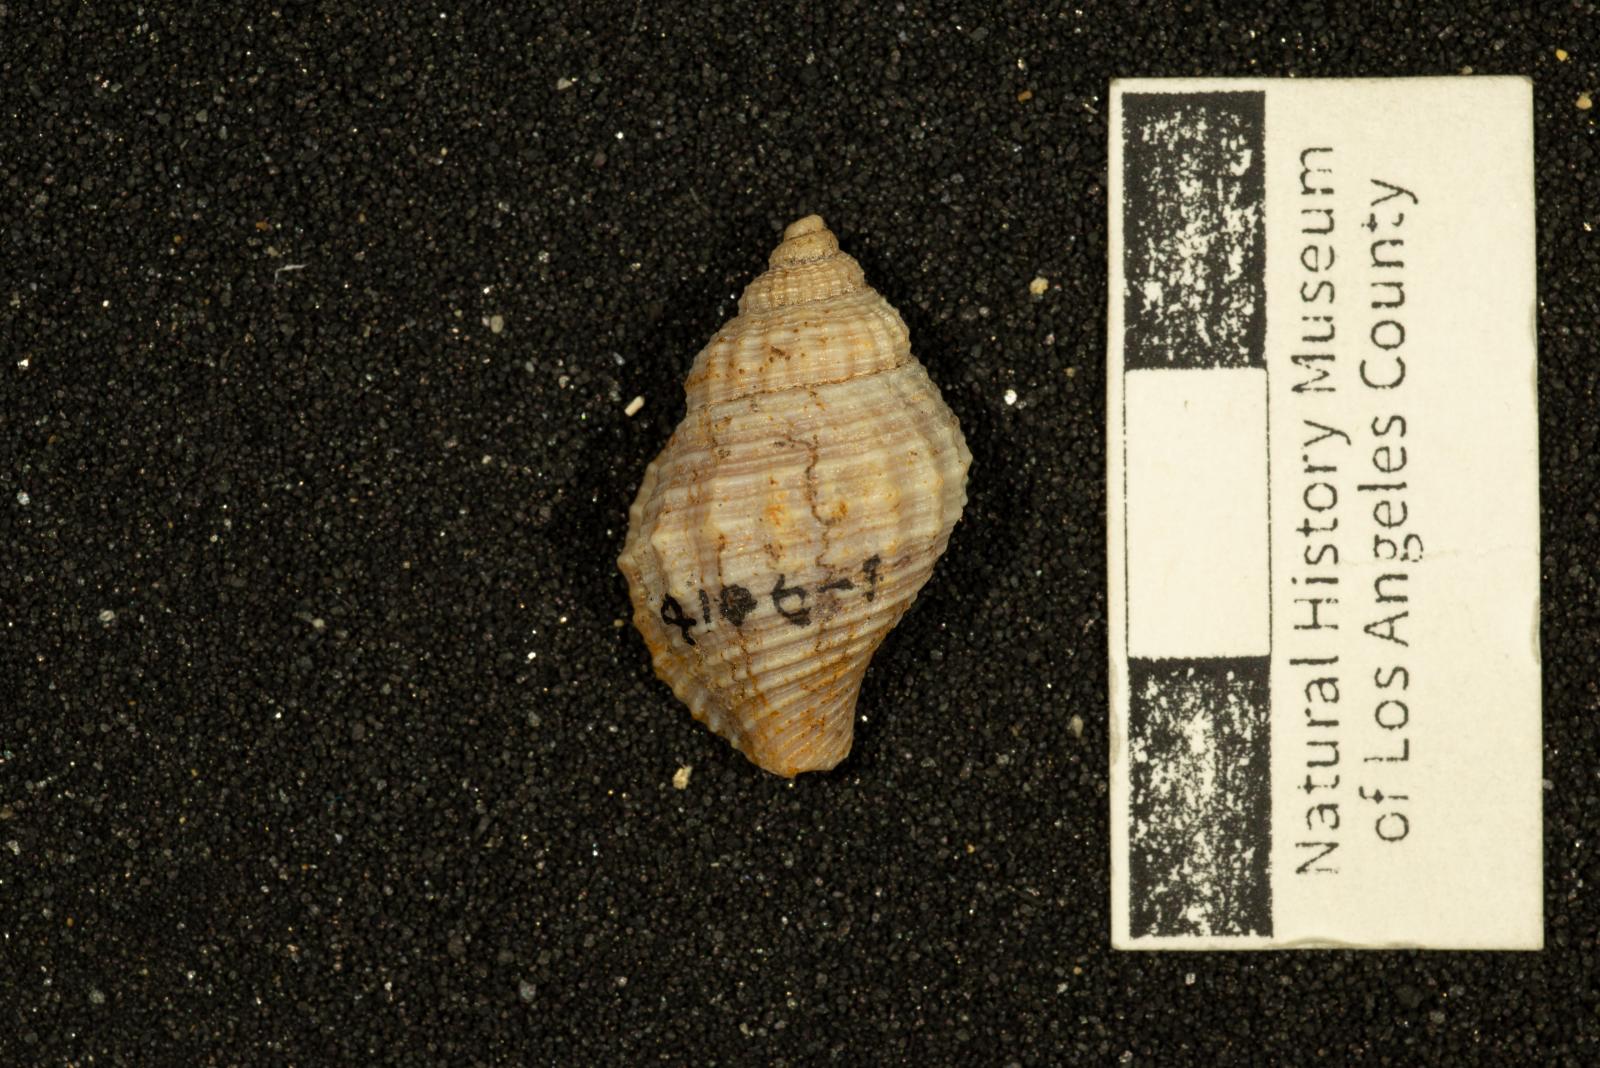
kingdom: Animalia
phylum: Mollusca
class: Gastropoda
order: Neogastropoda
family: Perissityidae
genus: Murphitys
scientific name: Murphitys michaeli
